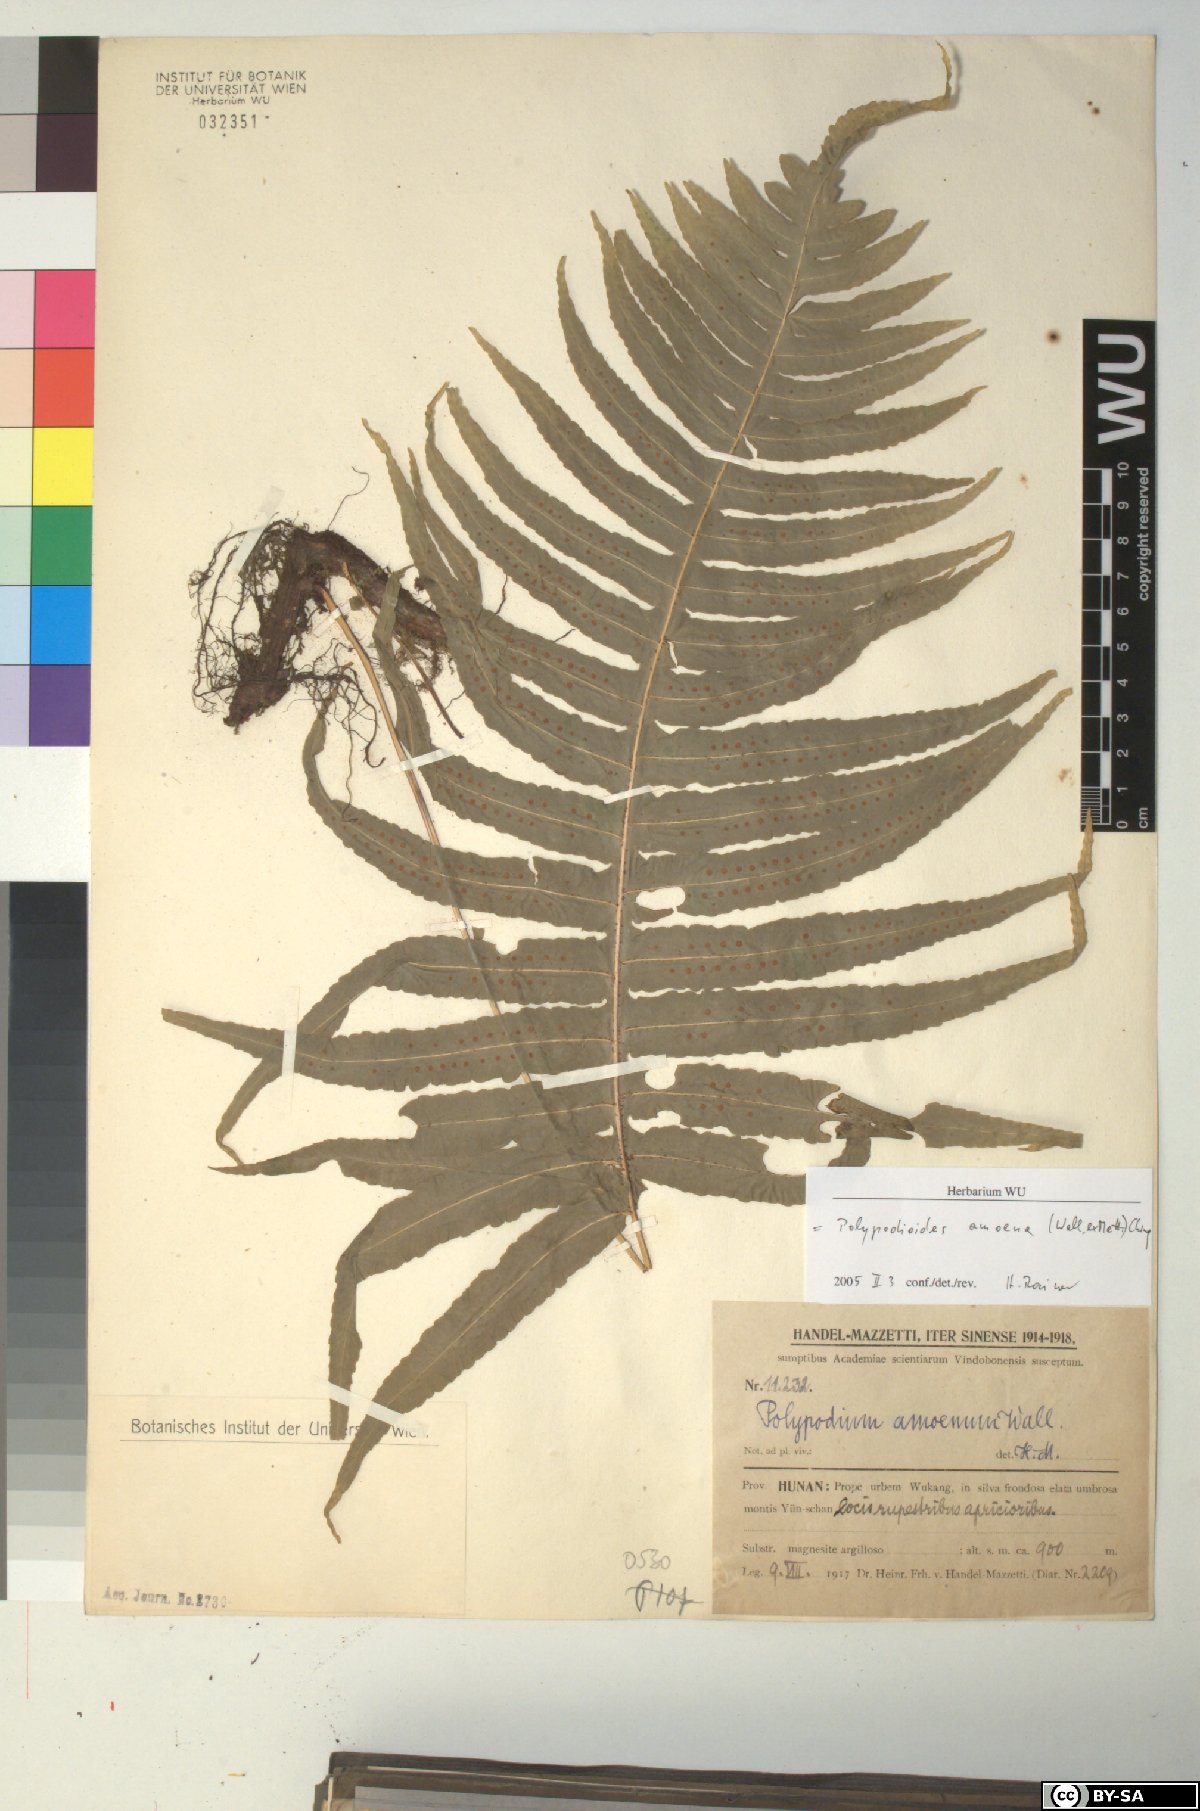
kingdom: Plantae
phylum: Tracheophyta
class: Polypodiopsida
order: Polypodiales
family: Polypodiaceae
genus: Goniophlebium
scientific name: Goniophlebium amoenum
